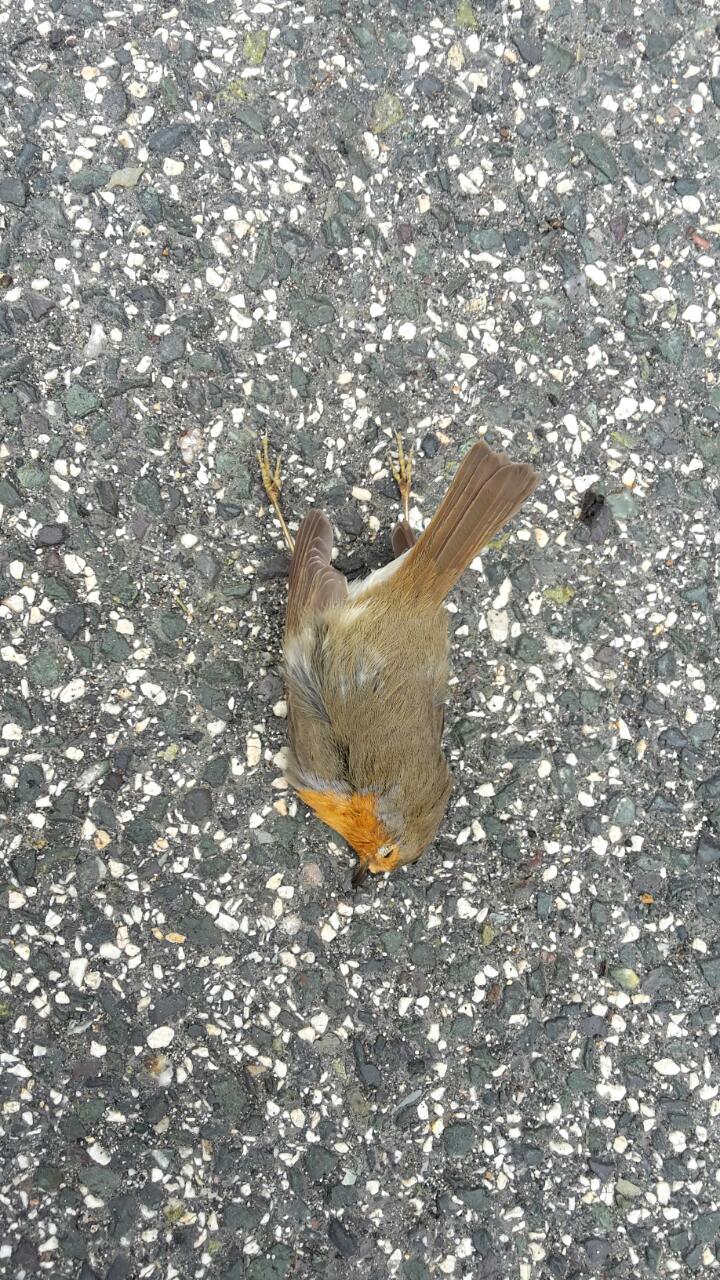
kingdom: Animalia
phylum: Chordata
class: Aves
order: Passeriformes
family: Muscicapidae
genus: Erithacus
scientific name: Erithacus rubecula
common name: European robin
